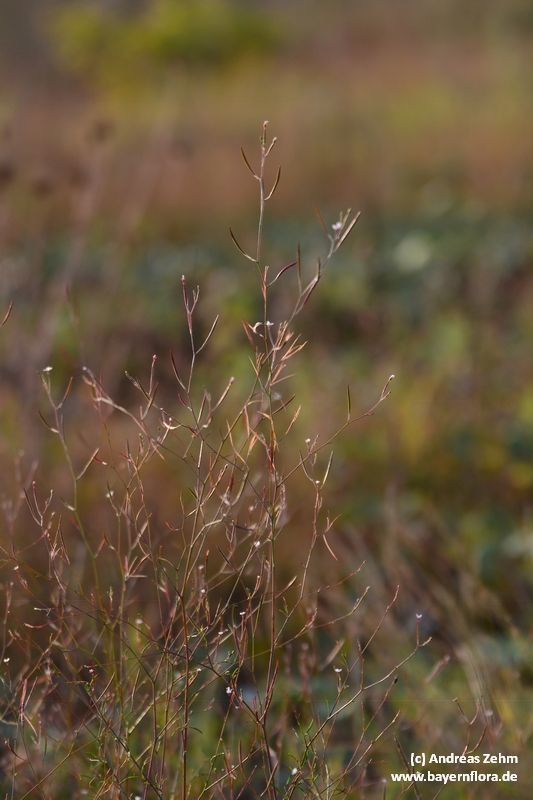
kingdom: Plantae
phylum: Tracheophyta
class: Magnoliopsida
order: Myrtales
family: Onagraceae
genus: Epilobium
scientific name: Epilobium brachycarpum
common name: Annual willowherb
